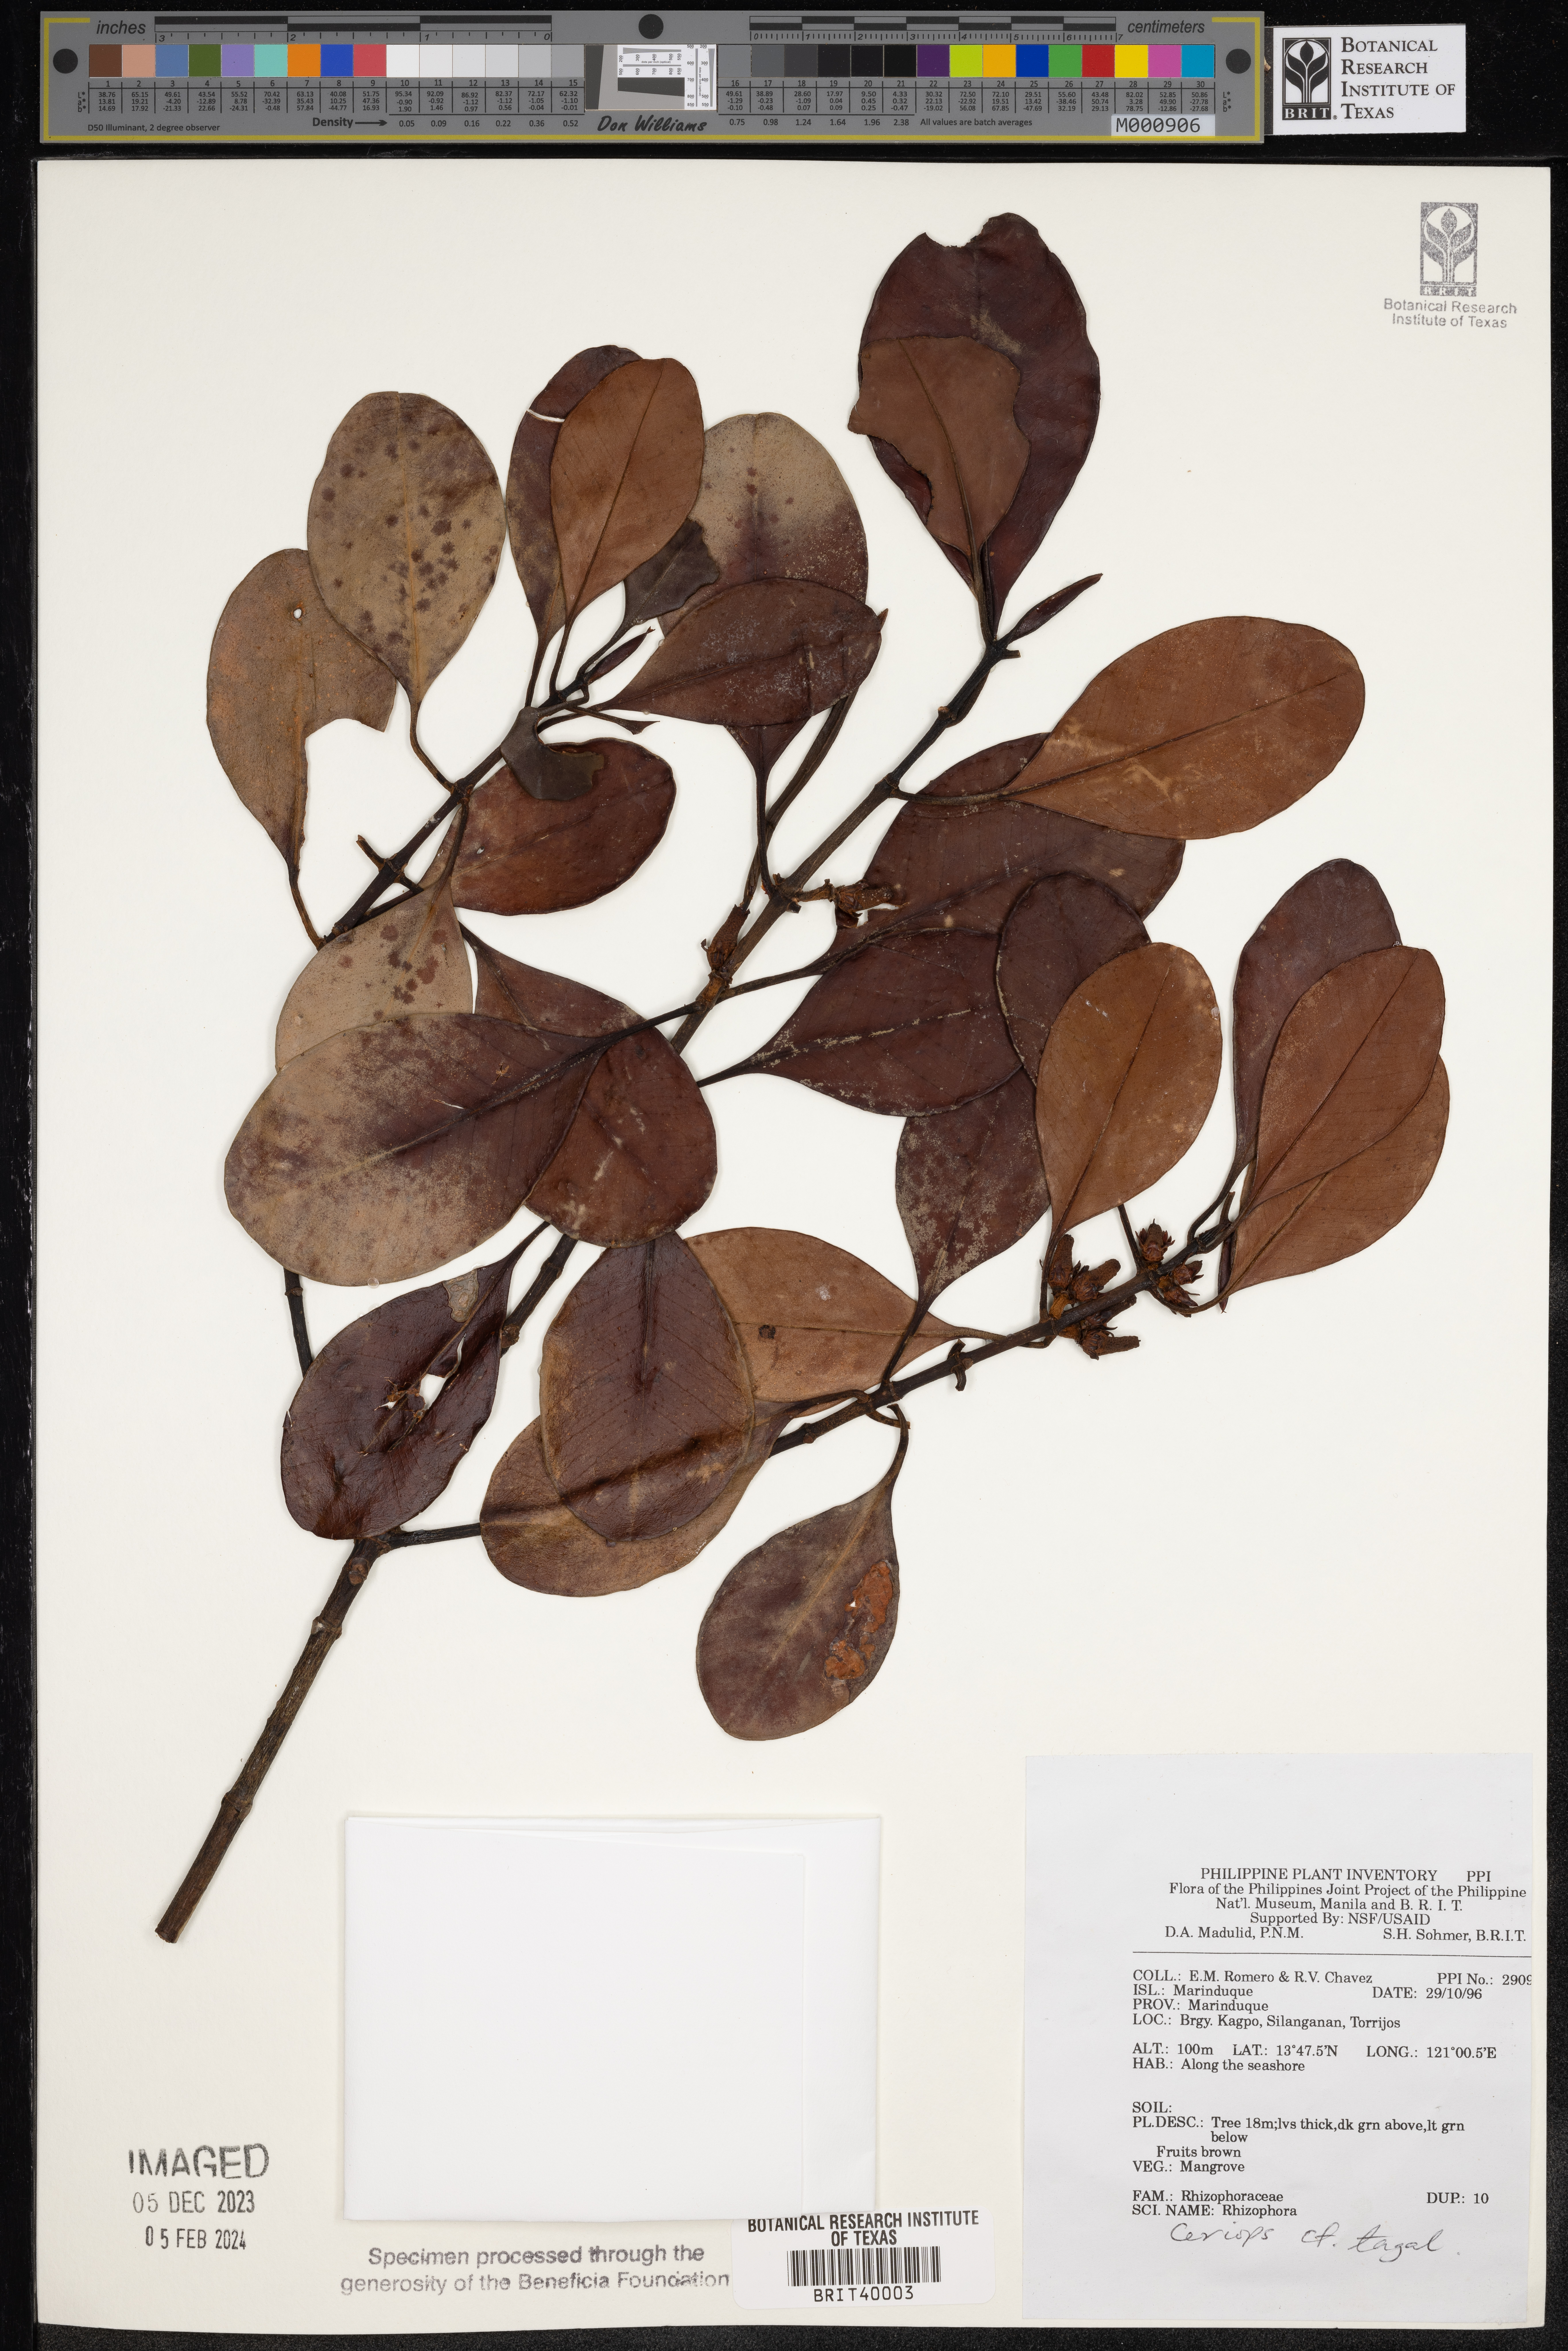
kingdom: Plantae
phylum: Tracheophyta
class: Magnoliopsida
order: Malpighiales
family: Rhizophoraceae
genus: Ceriops
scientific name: Ceriops tagal
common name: Spurred mangrove
